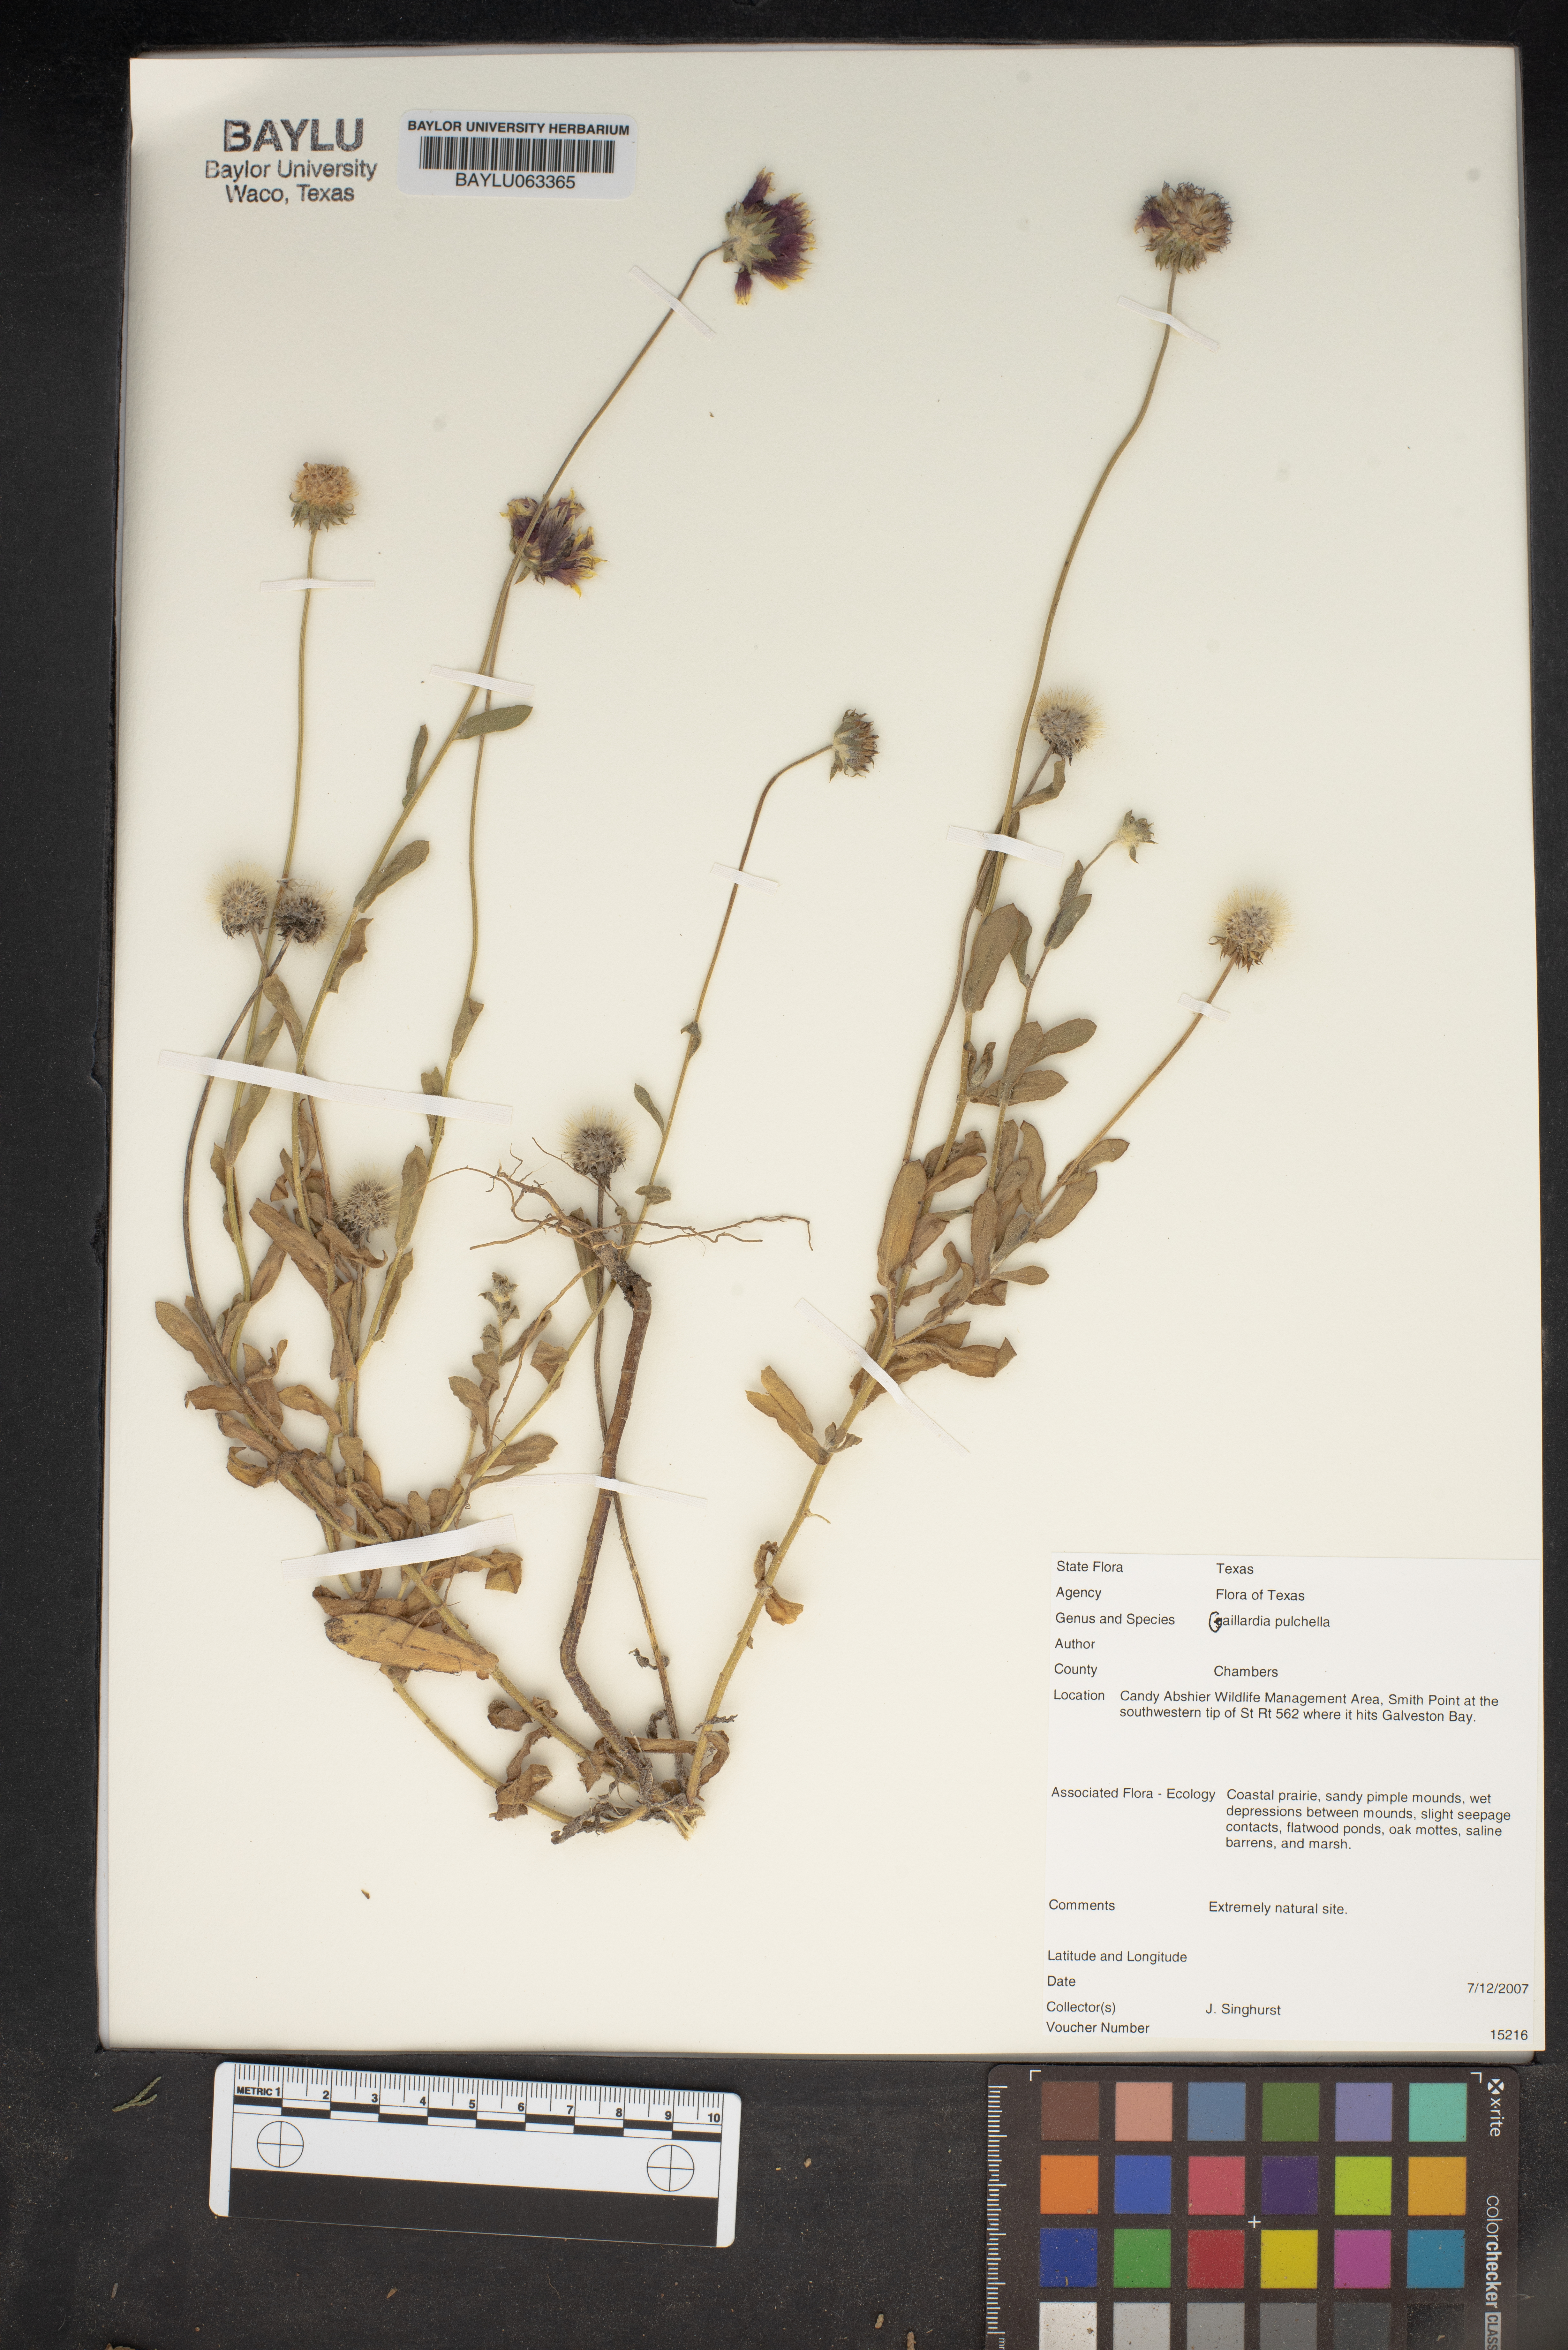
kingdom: Plantae
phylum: Tracheophyta
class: Magnoliopsida
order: Asterales
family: Asteraceae
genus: Gaillardia
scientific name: Gaillardia pulchella
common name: Firewheel
